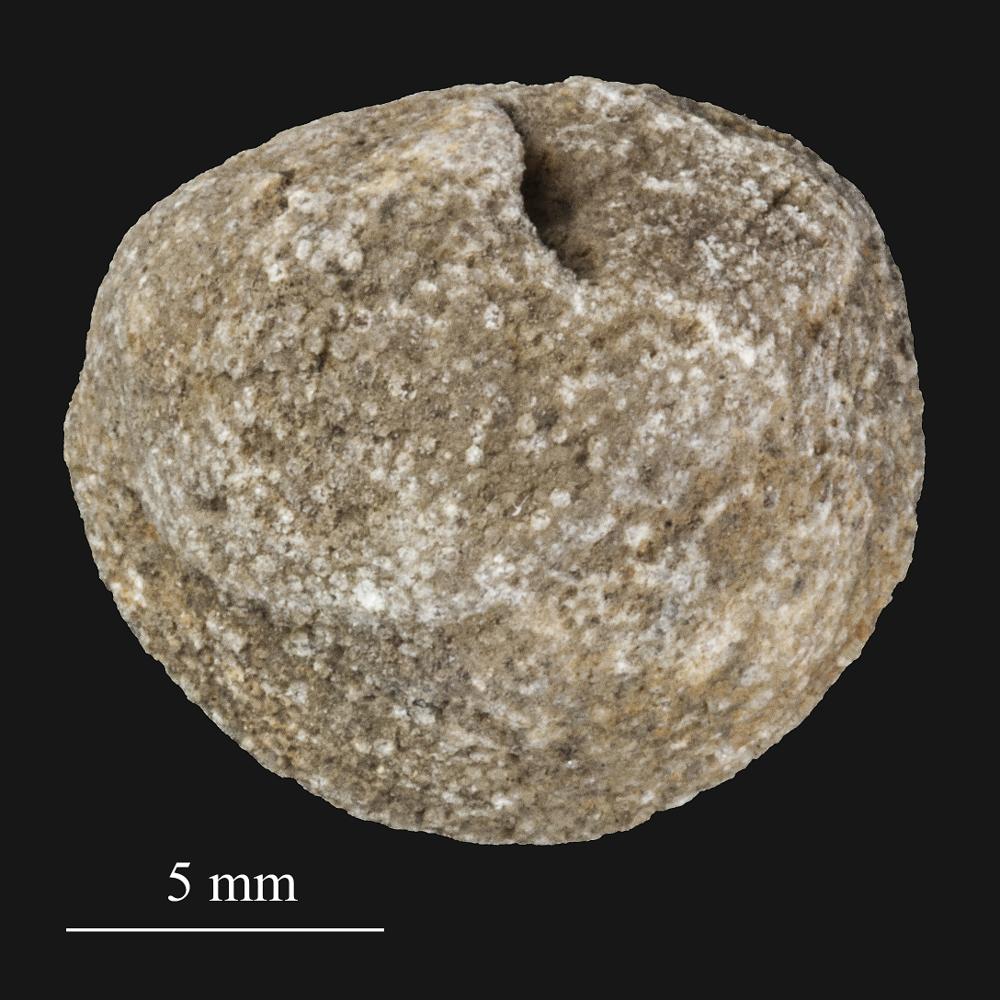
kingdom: Animalia
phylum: Bryozoa
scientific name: Bryozoa
